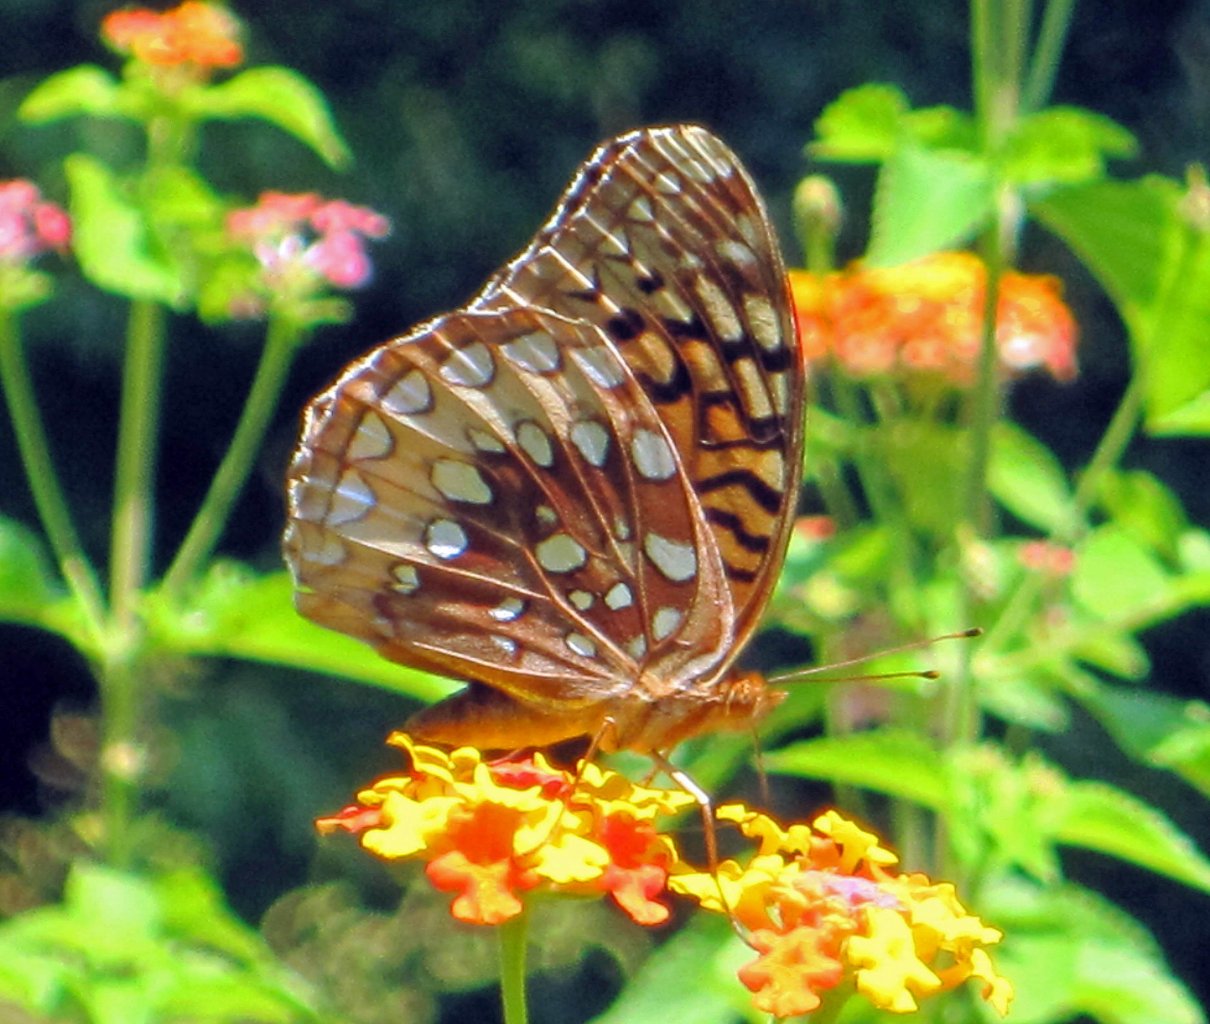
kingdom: Animalia
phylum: Arthropoda
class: Insecta
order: Lepidoptera
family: Nymphalidae
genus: Speyeria
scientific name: Speyeria cybele
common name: Great Spangled Fritillary
